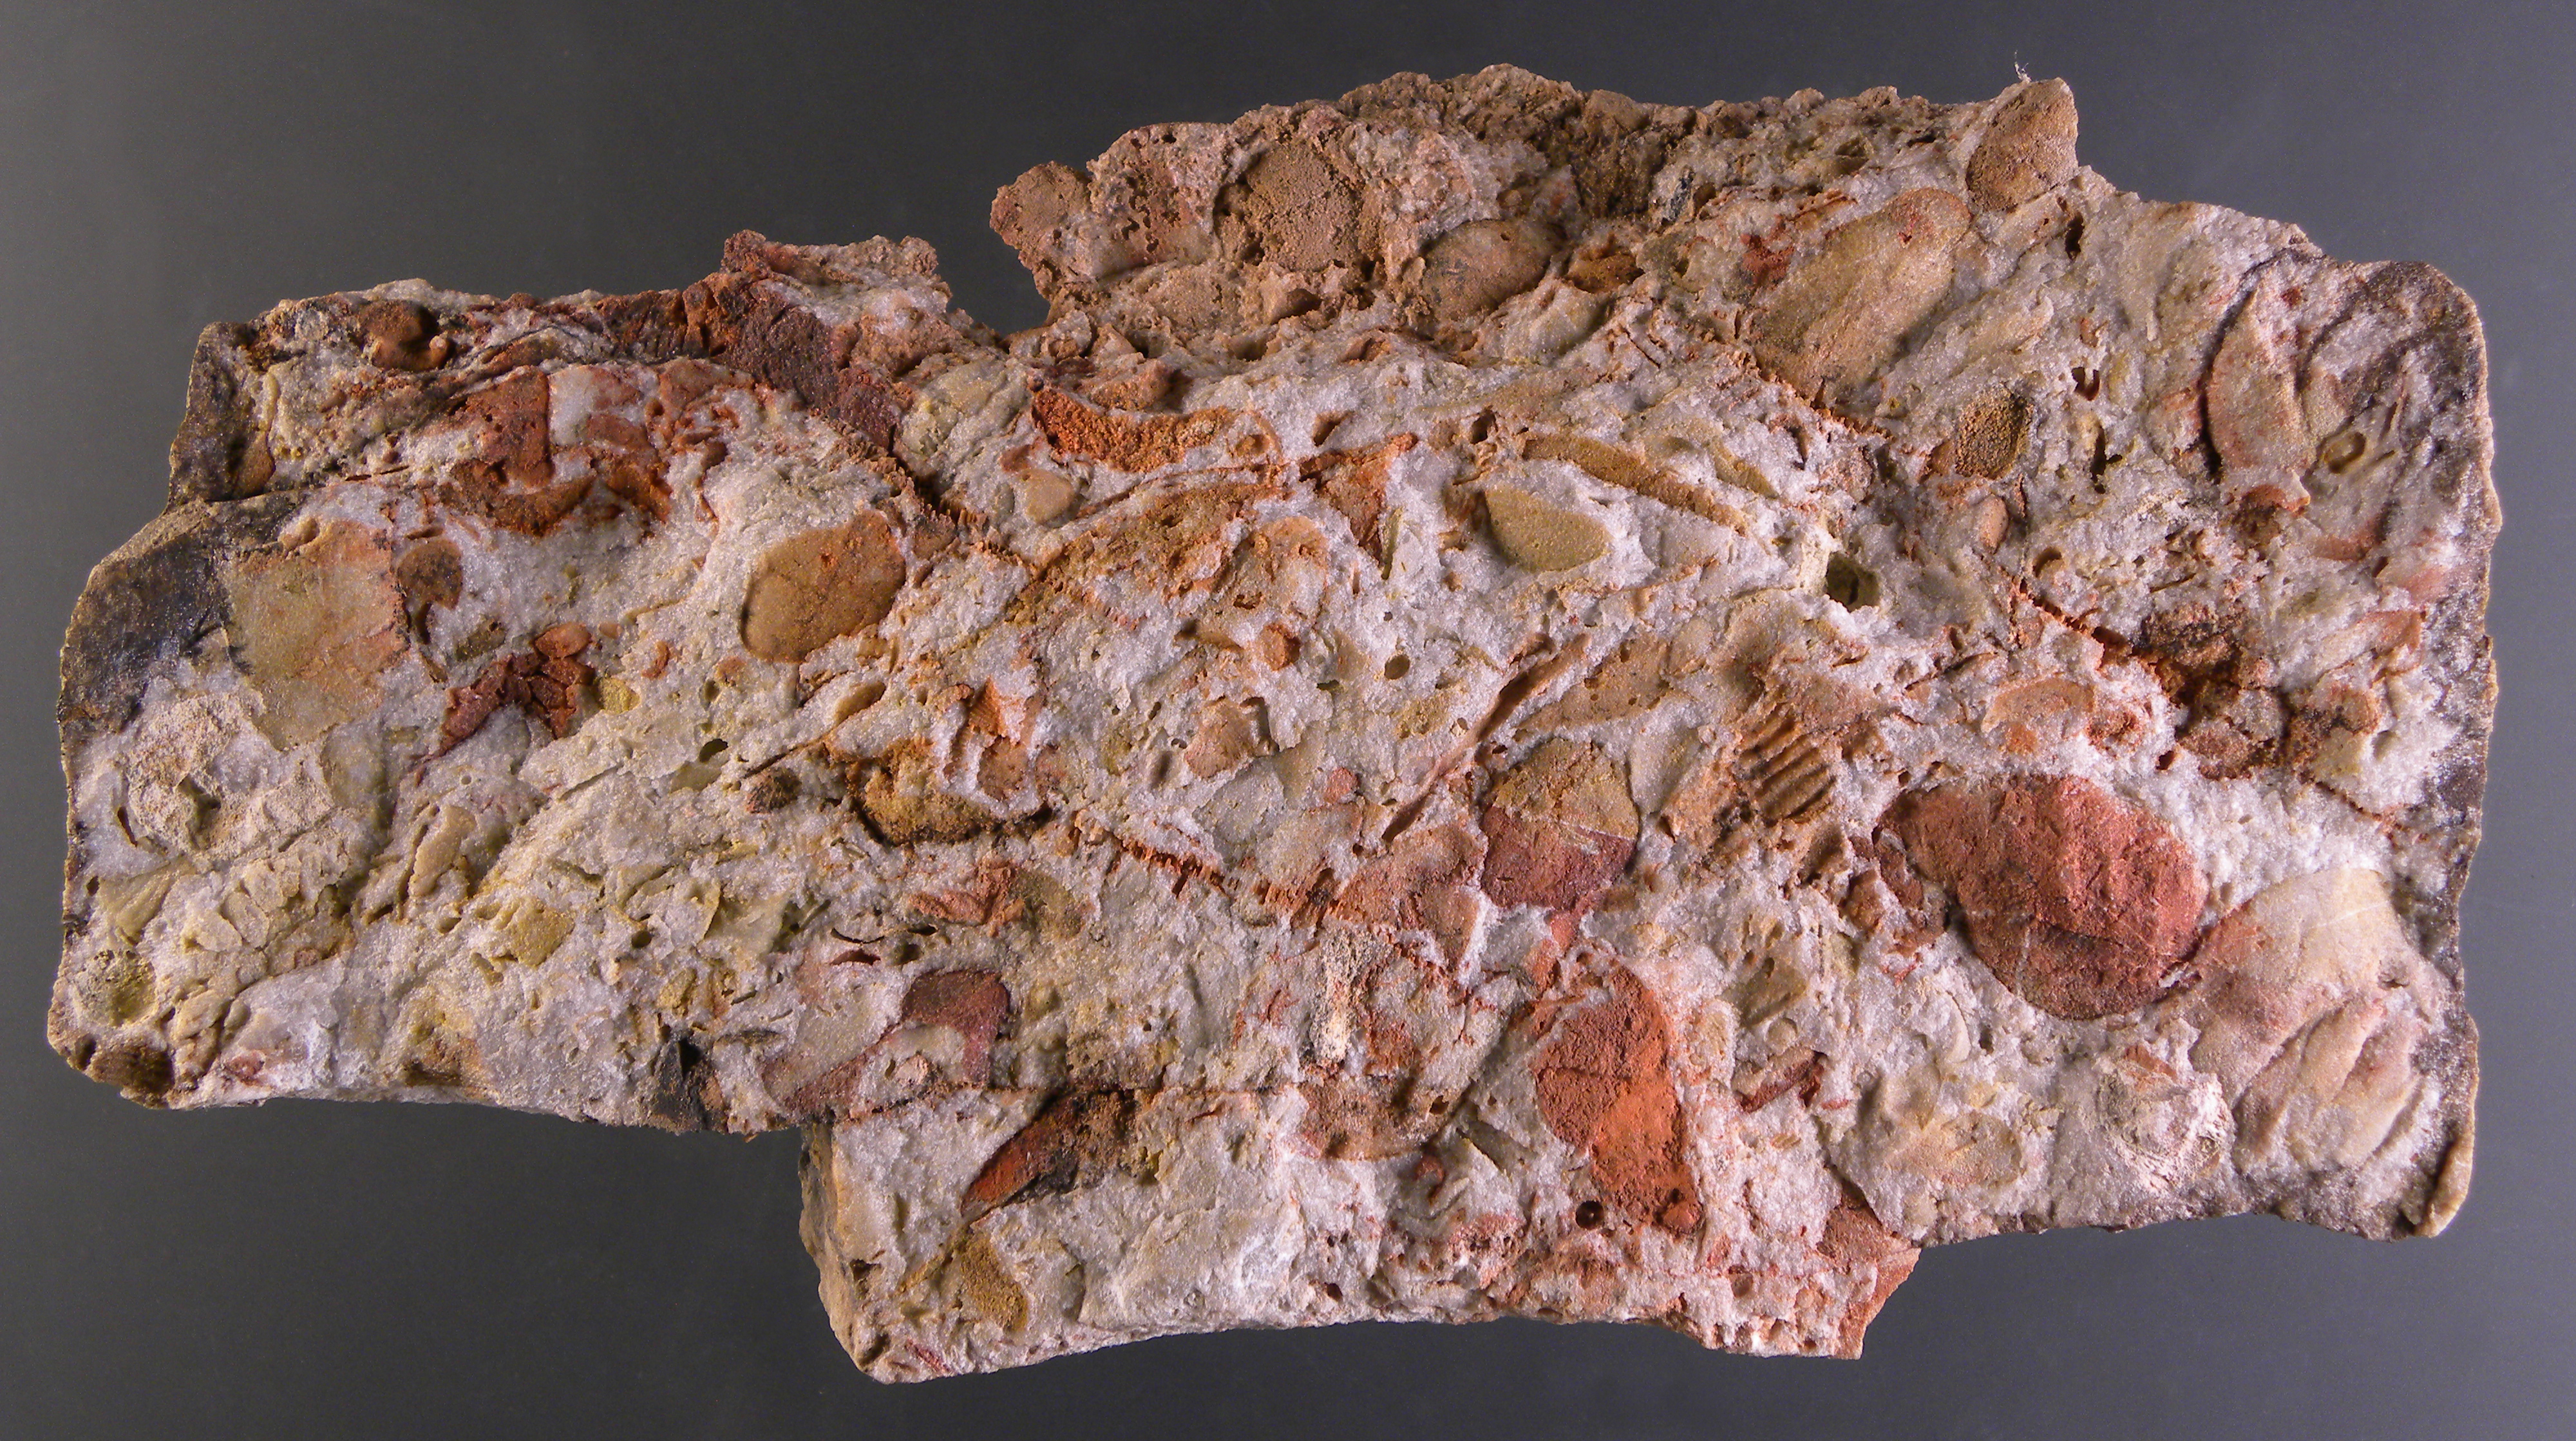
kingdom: Animalia
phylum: Mollusca
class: Bivalvia
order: Ostreida
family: Pterineidae
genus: Limoptera
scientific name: Limoptera
